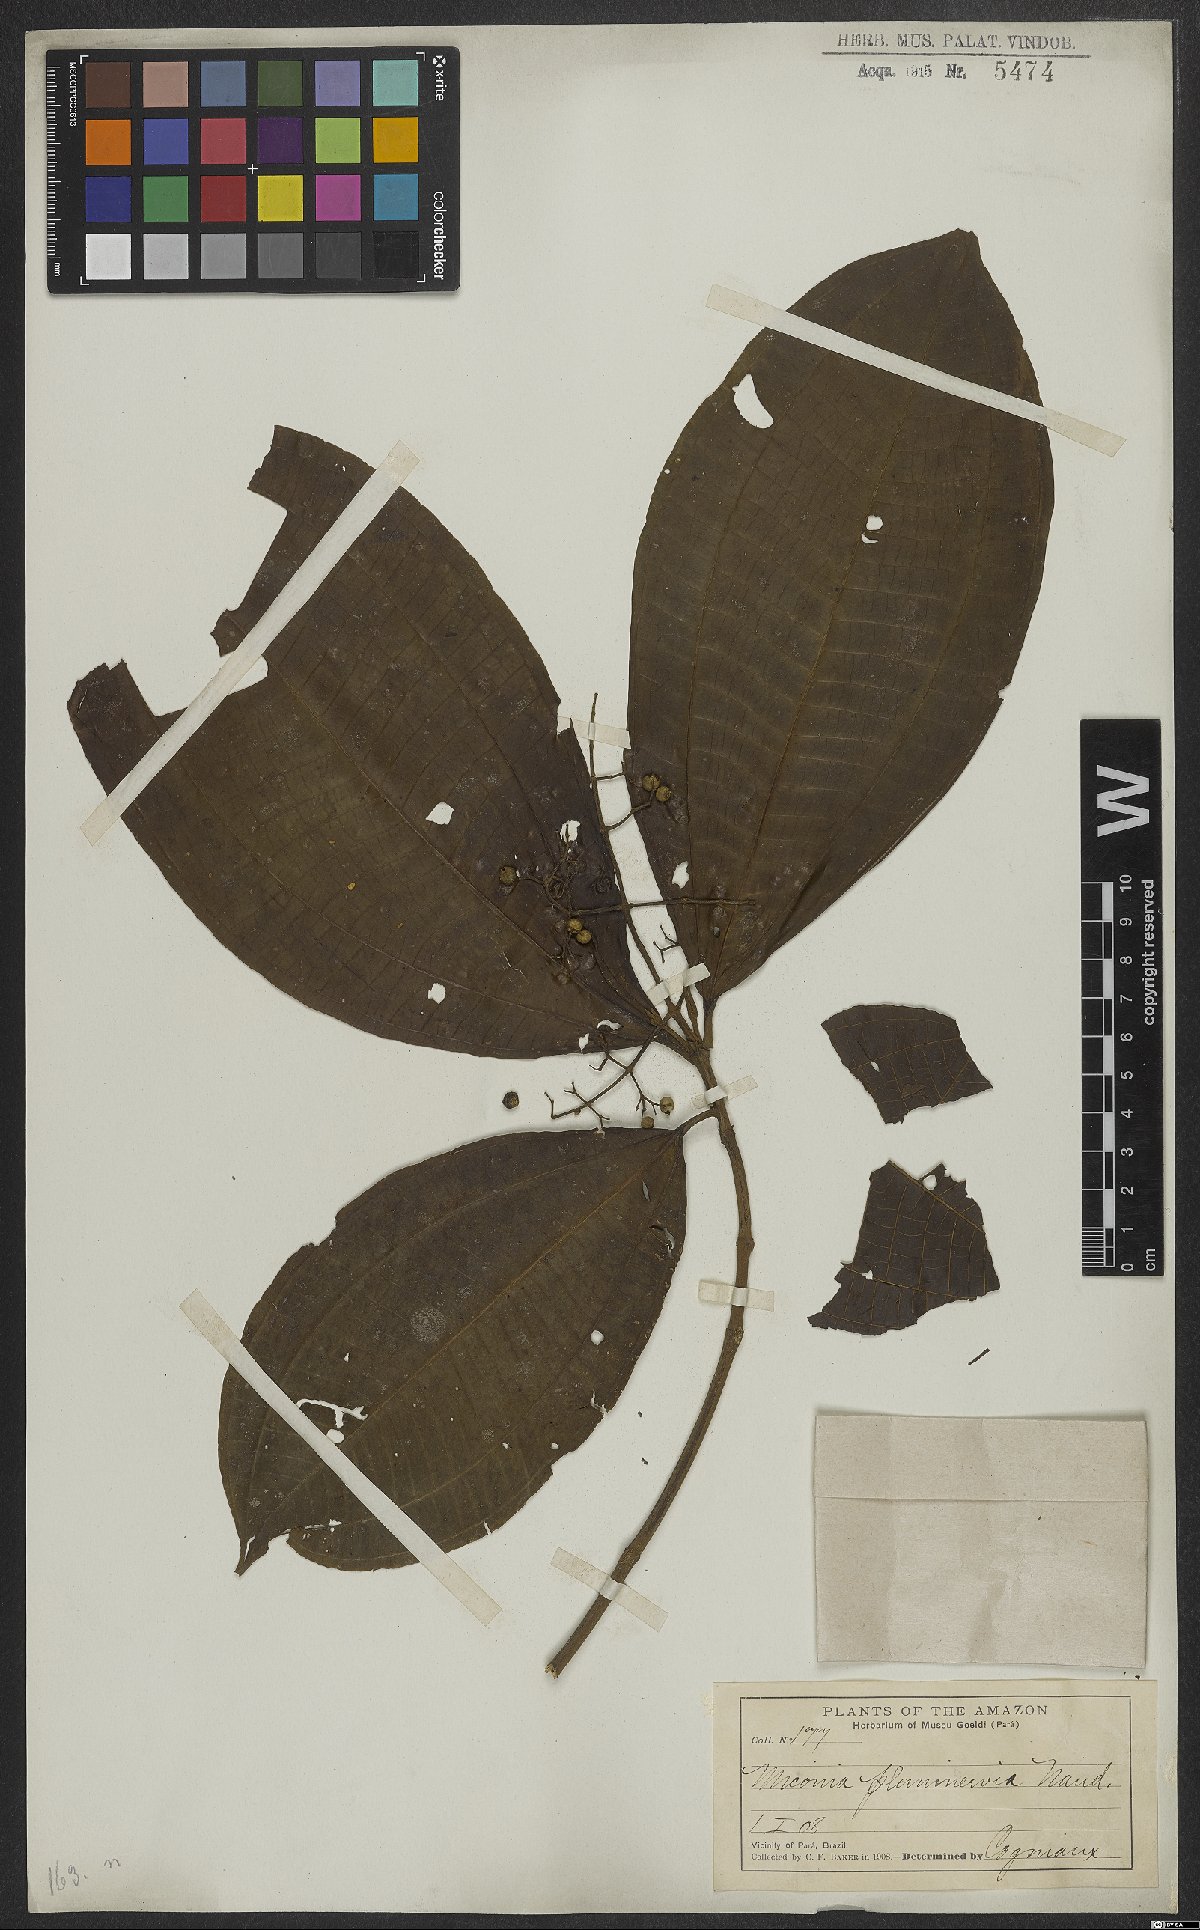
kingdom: Plantae
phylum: Tracheophyta
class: Magnoliopsida
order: Myrtales
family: Melastomataceae
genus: Miconia
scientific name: Miconia affinis
